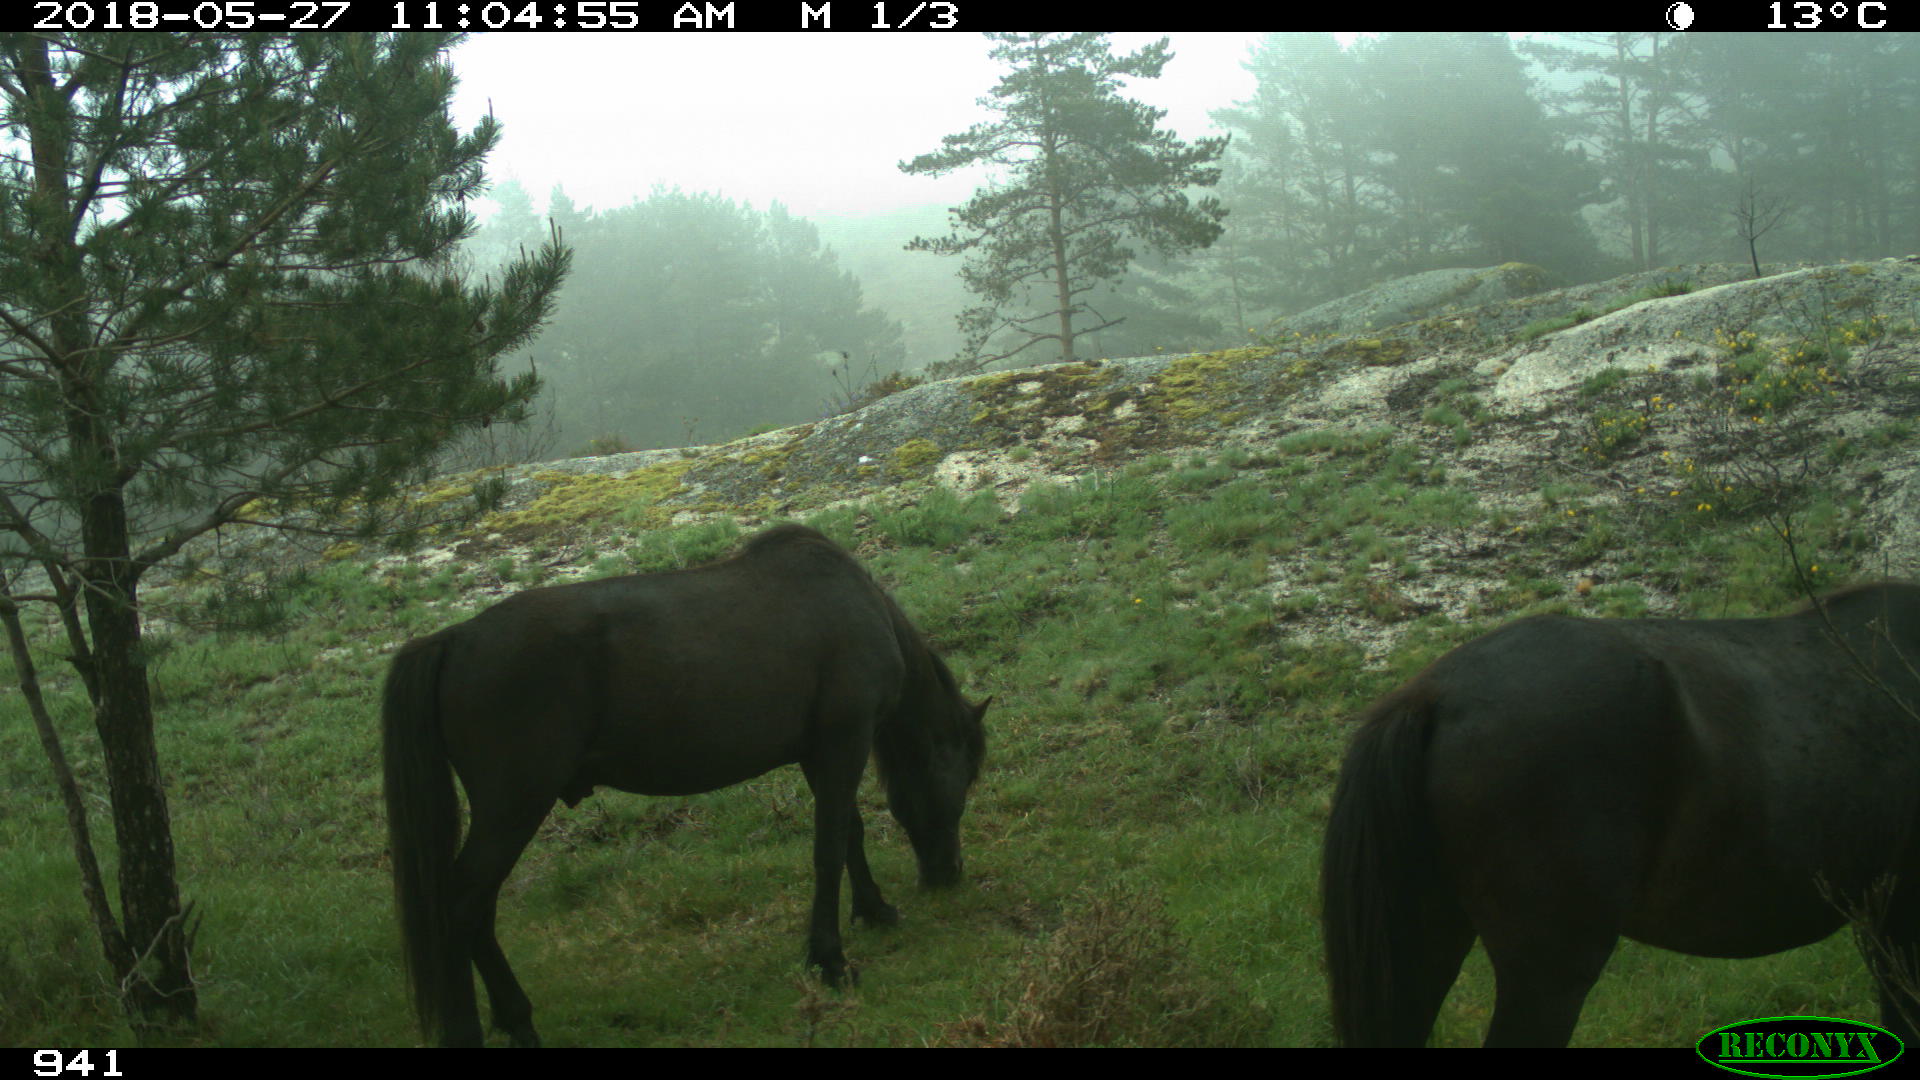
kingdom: Animalia
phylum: Chordata
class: Mammalia
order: Perissodactyla
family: Equidae
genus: Equus
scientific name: Equus caballus
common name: Horse
